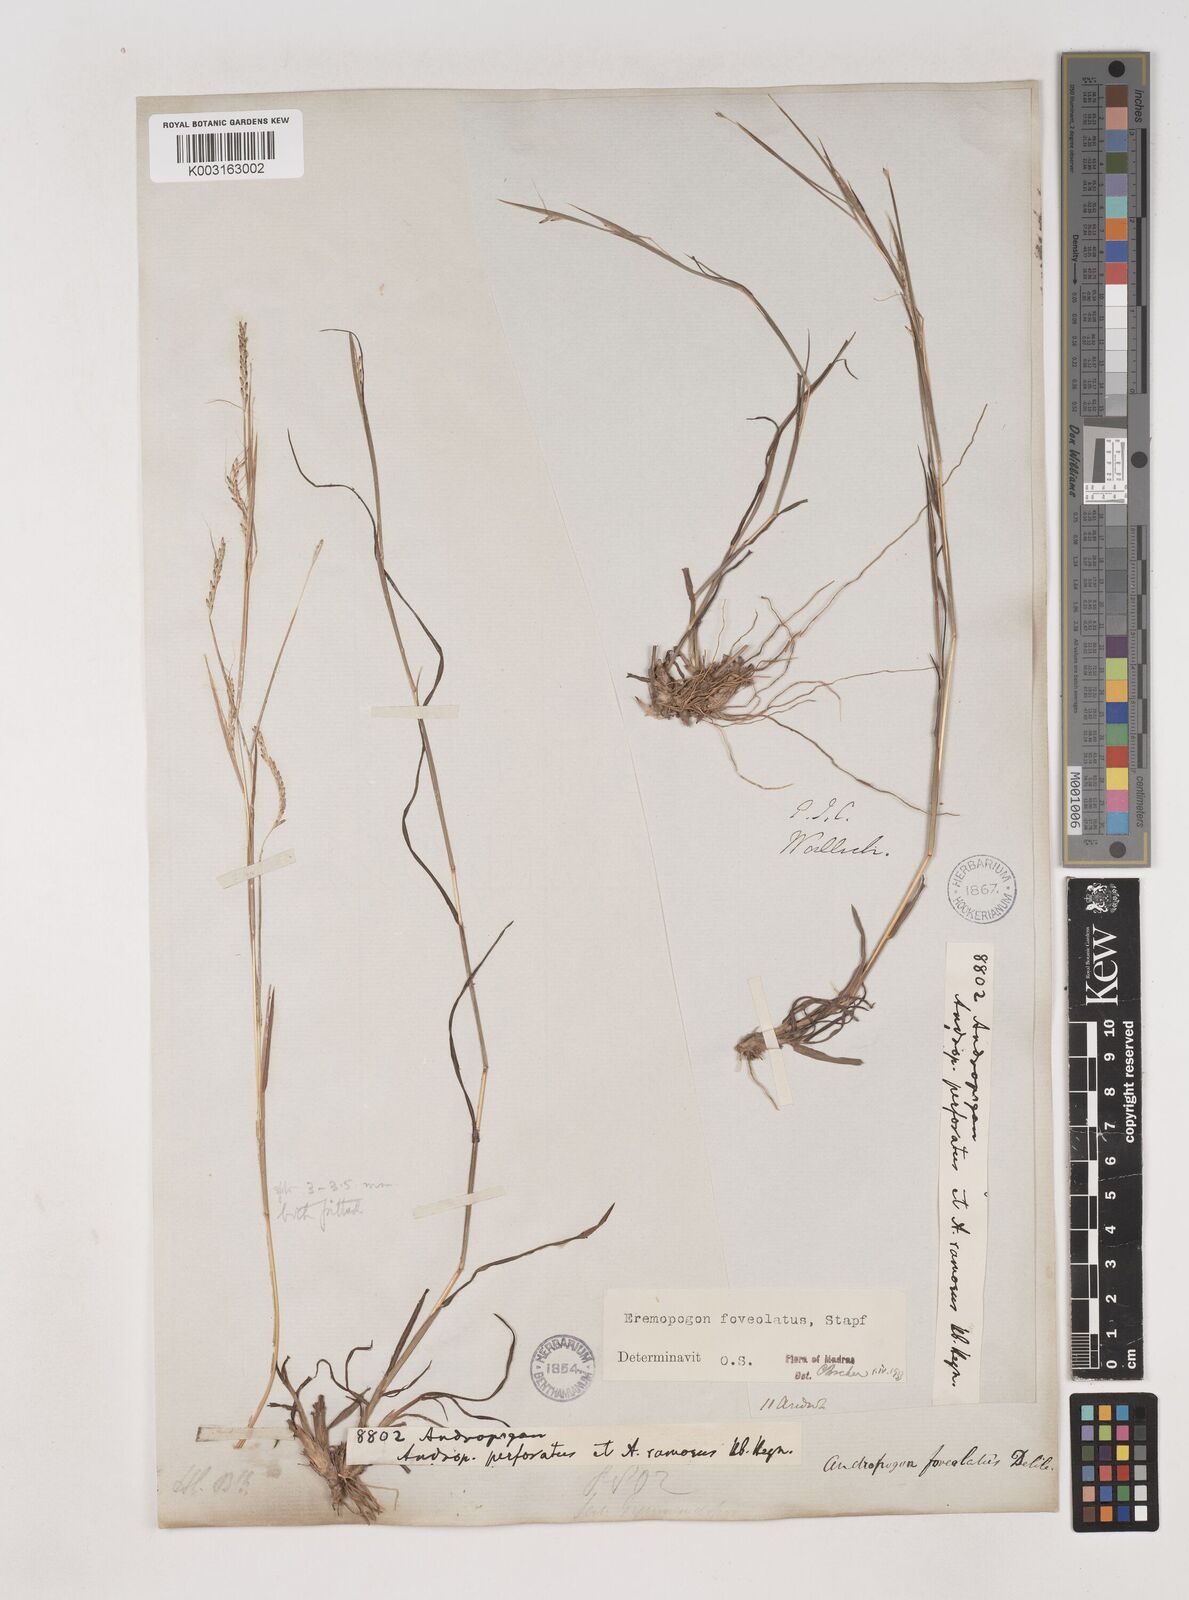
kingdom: Plantae
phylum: Tracheophyta
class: Liliopsida
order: Poales
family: Poaceae
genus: Dichanthium
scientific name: Dichanthium foveolatum
